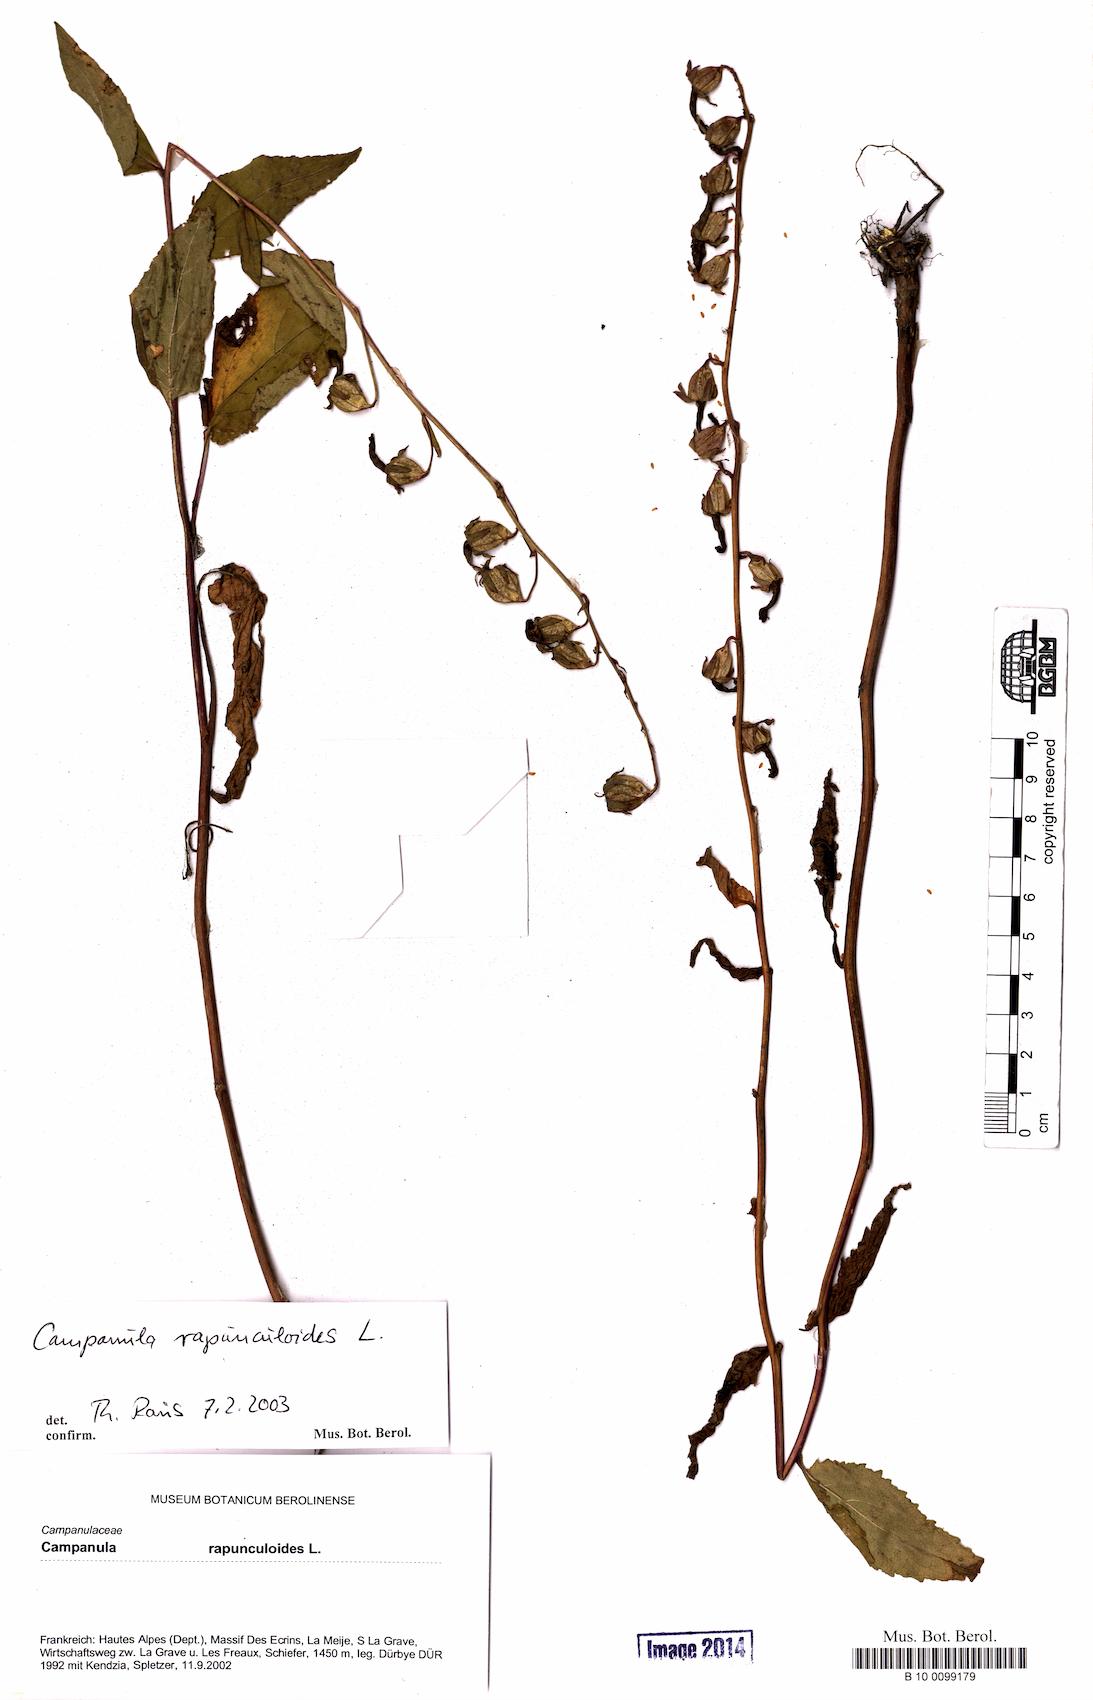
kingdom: Plantae
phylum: Tracheophyta
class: Magnoliopsida
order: Asterales
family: Campanulaceae
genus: Campanula
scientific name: Campanula rapunculoides
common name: Creeping bellflower
